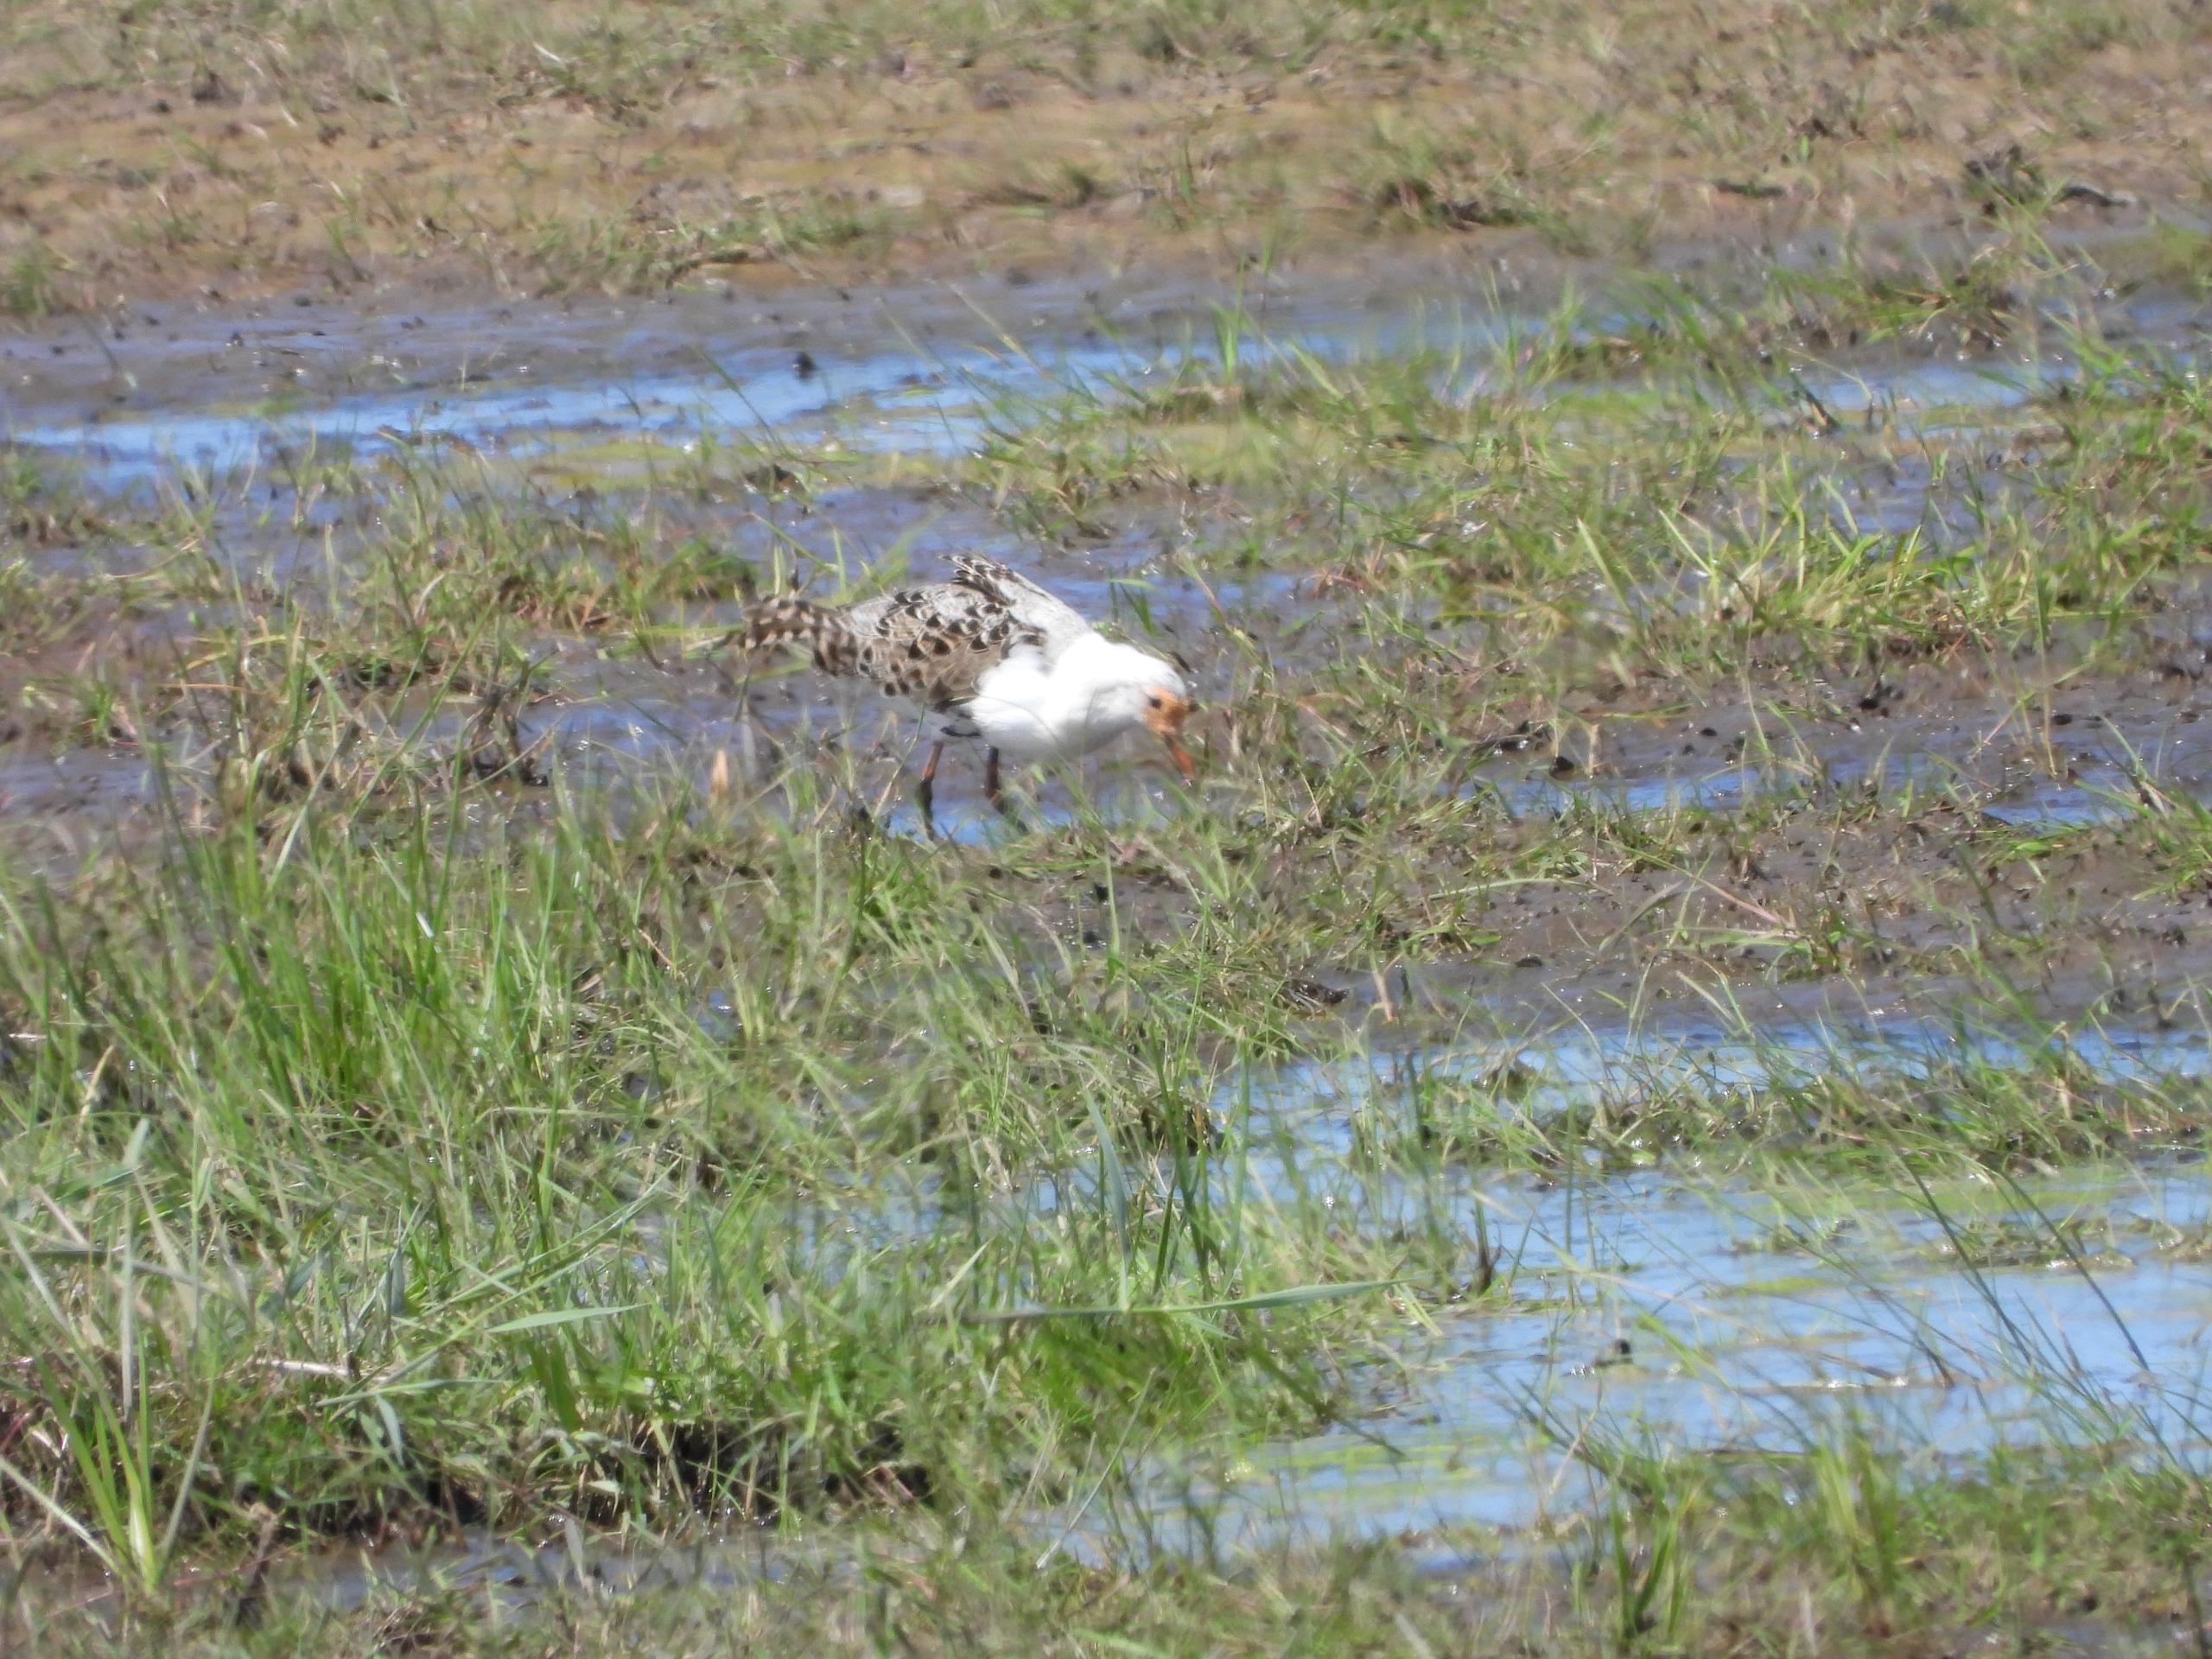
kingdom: Animalia
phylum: Chordata
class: Aves
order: Charadriiformes
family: Scolopacidae
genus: Calidris
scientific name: Calidris pugnax
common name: Brushane
